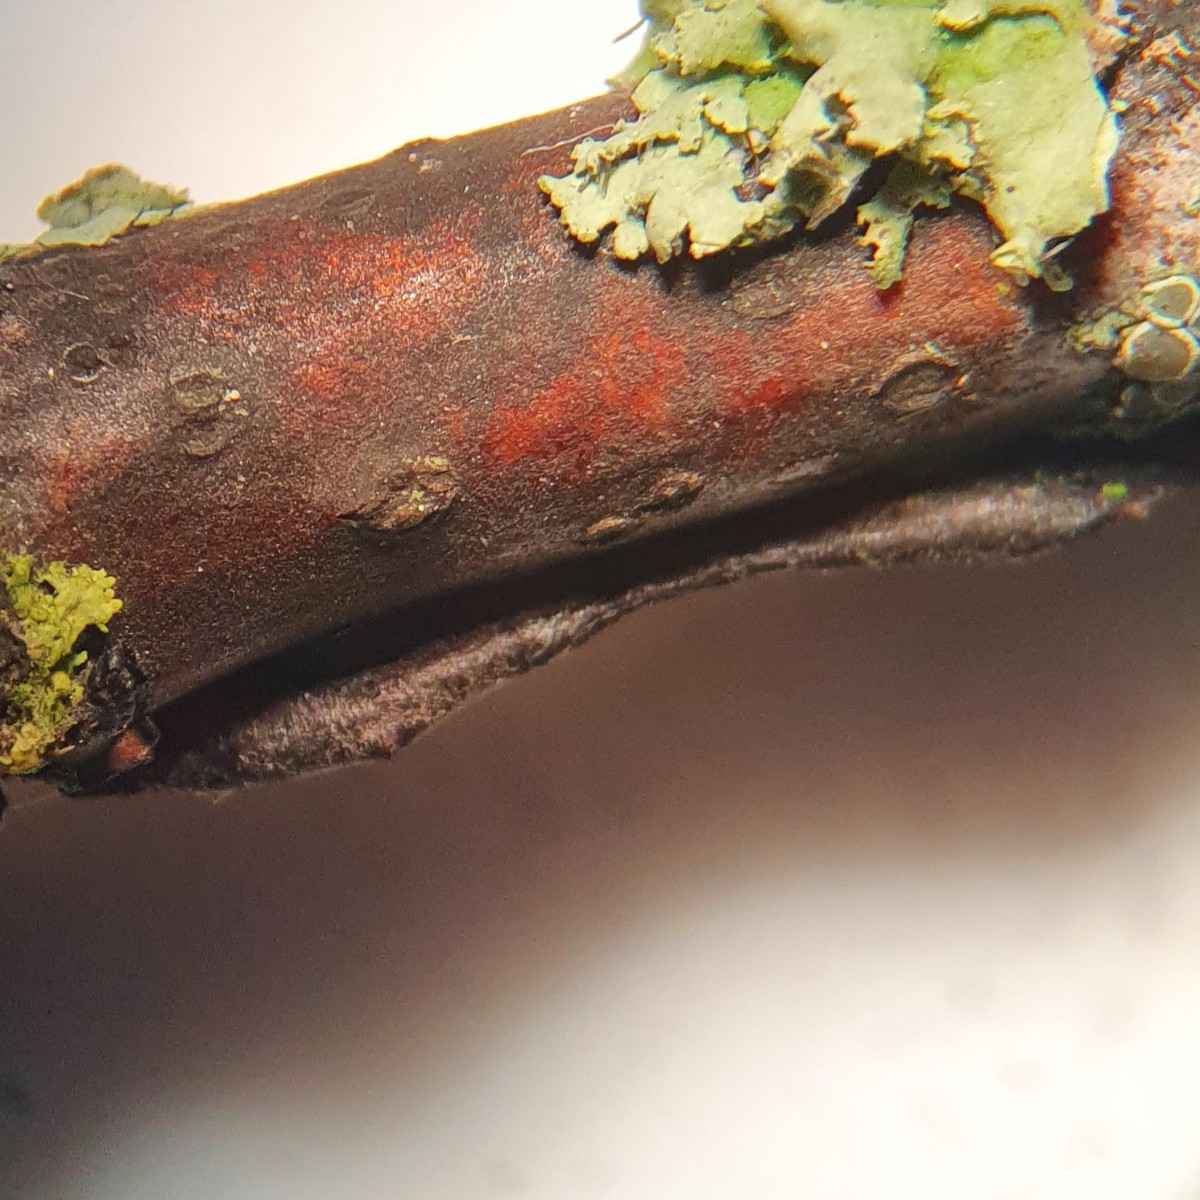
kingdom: Fungi
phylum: Basidiomycota
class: Agaricomycetes
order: Russulales
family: Peniophoraceae
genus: Peniophora
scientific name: Peniophora quercina
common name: ege-voksskind
